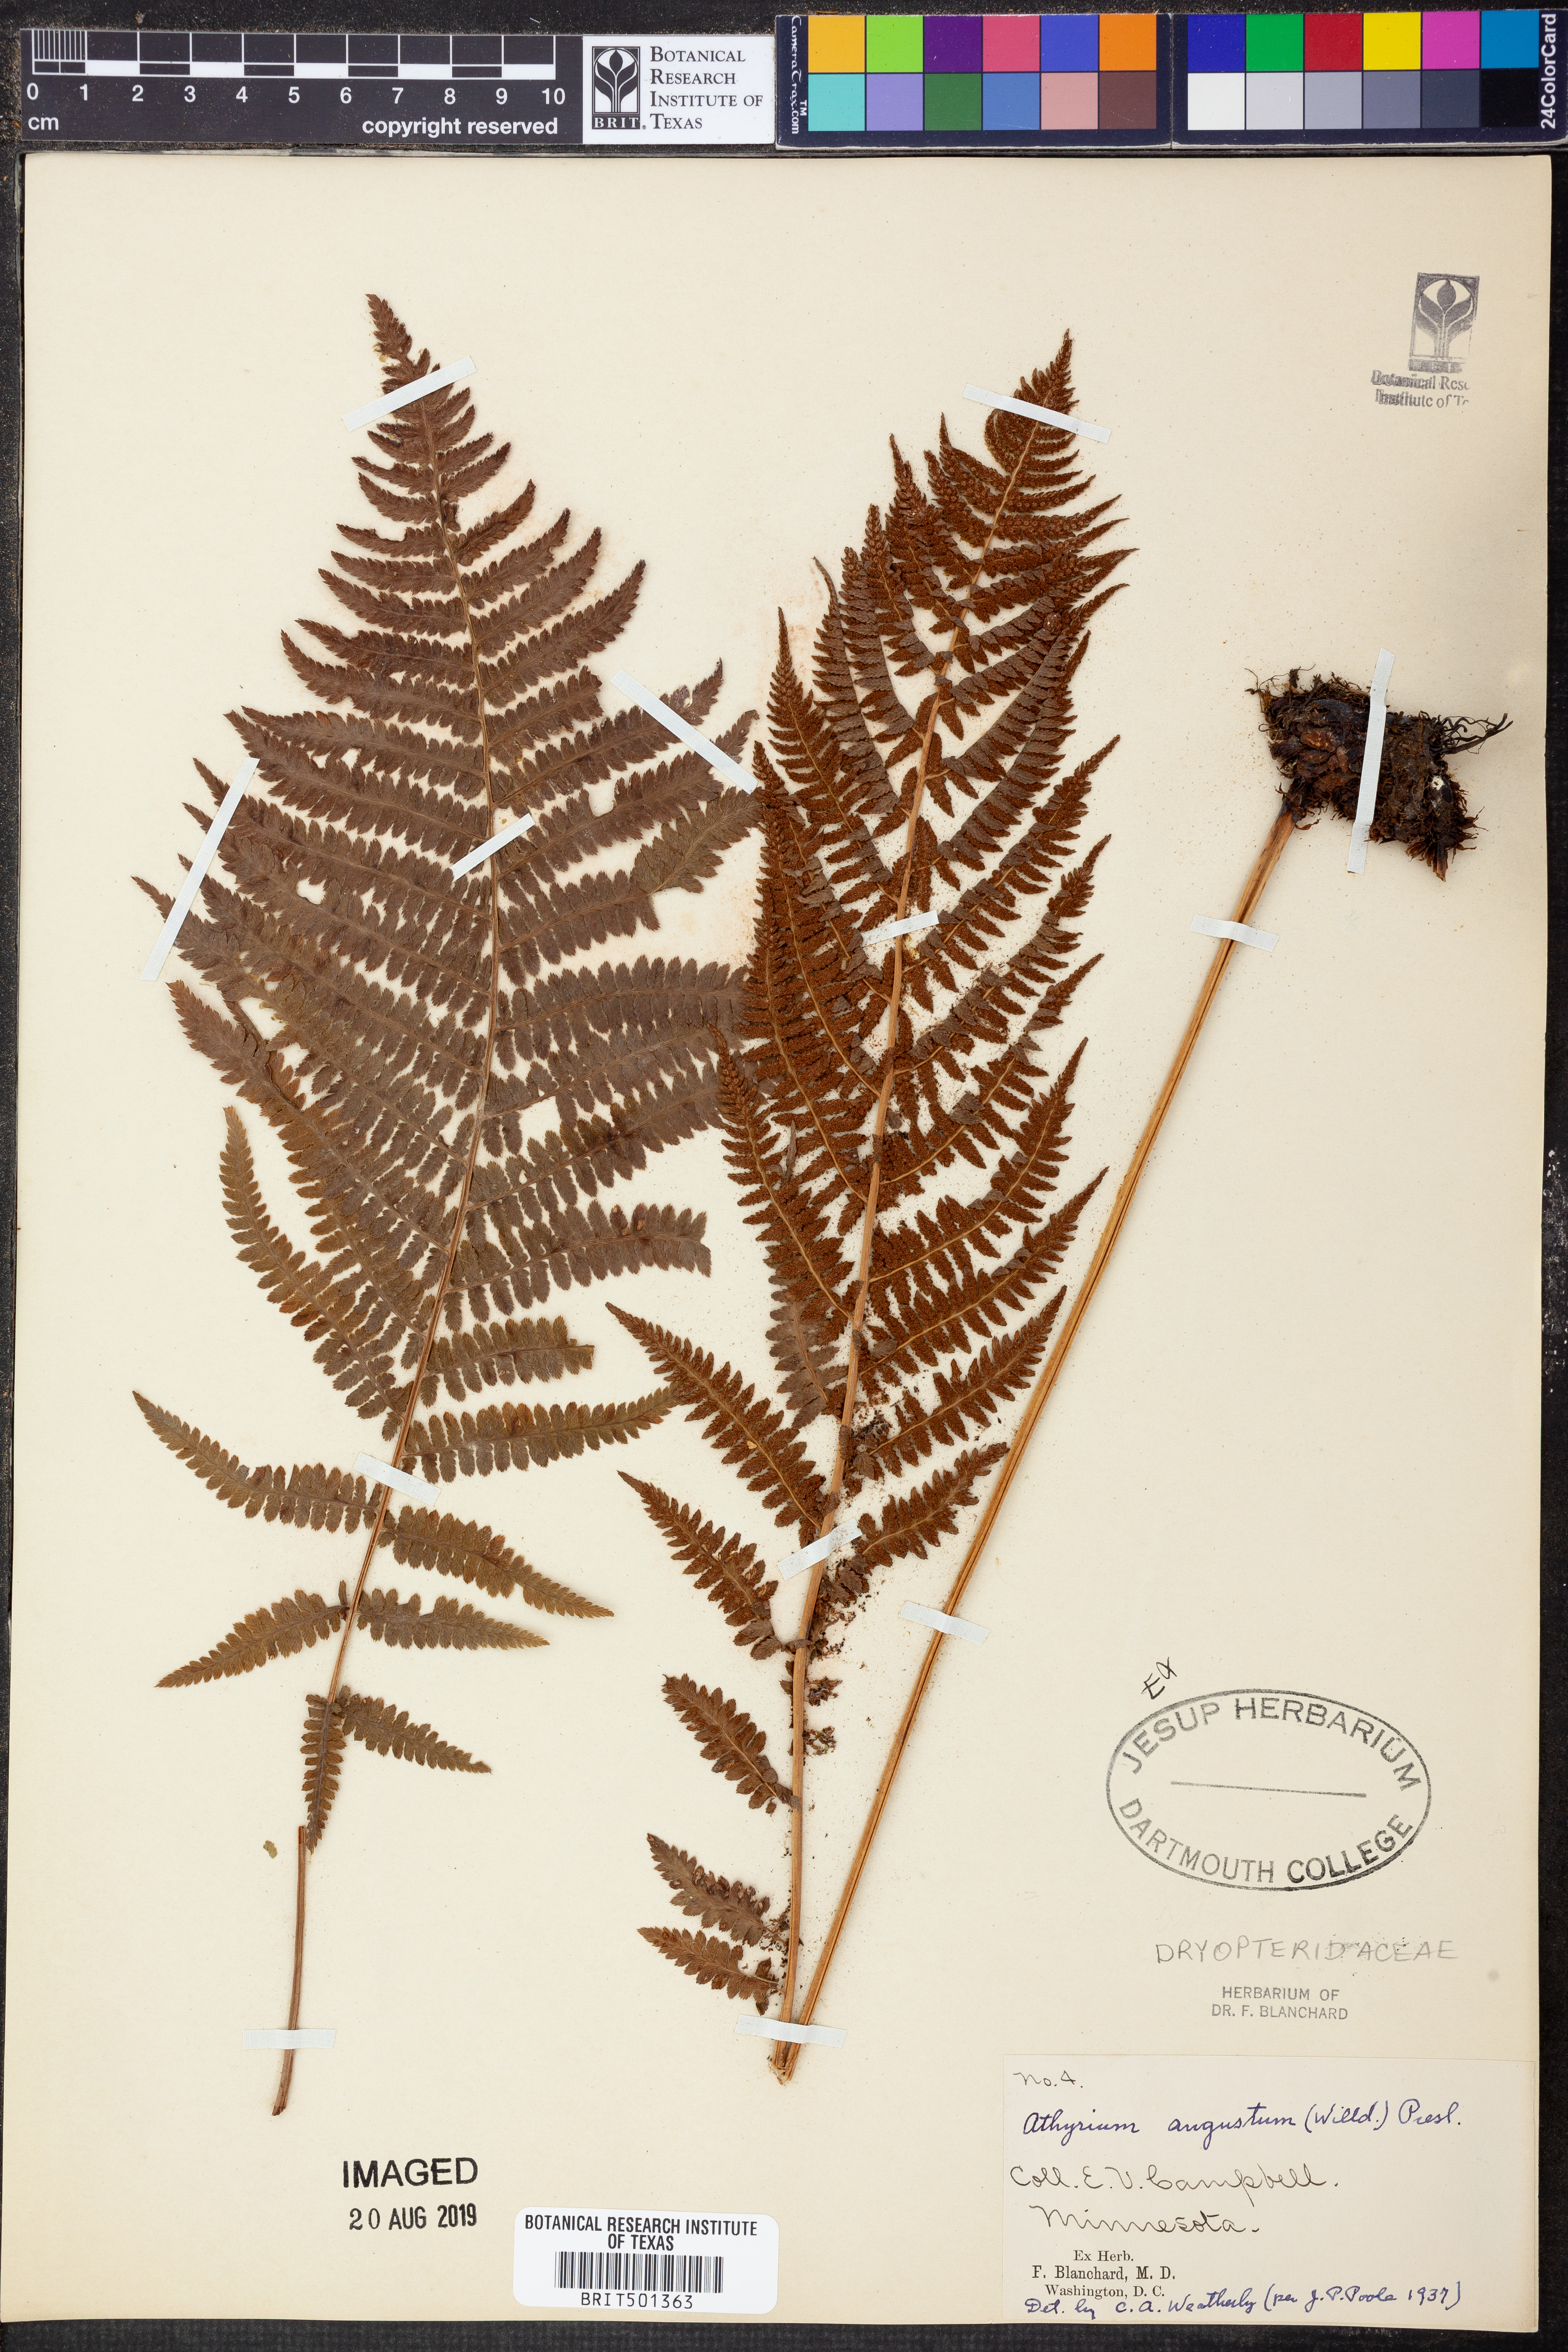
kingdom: Plantae
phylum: Tracheophyta
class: Polypodiopsida
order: Polypodiales
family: Athyriaceae
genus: Athyrium
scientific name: Athyrium angustum
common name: Northern lady fern
